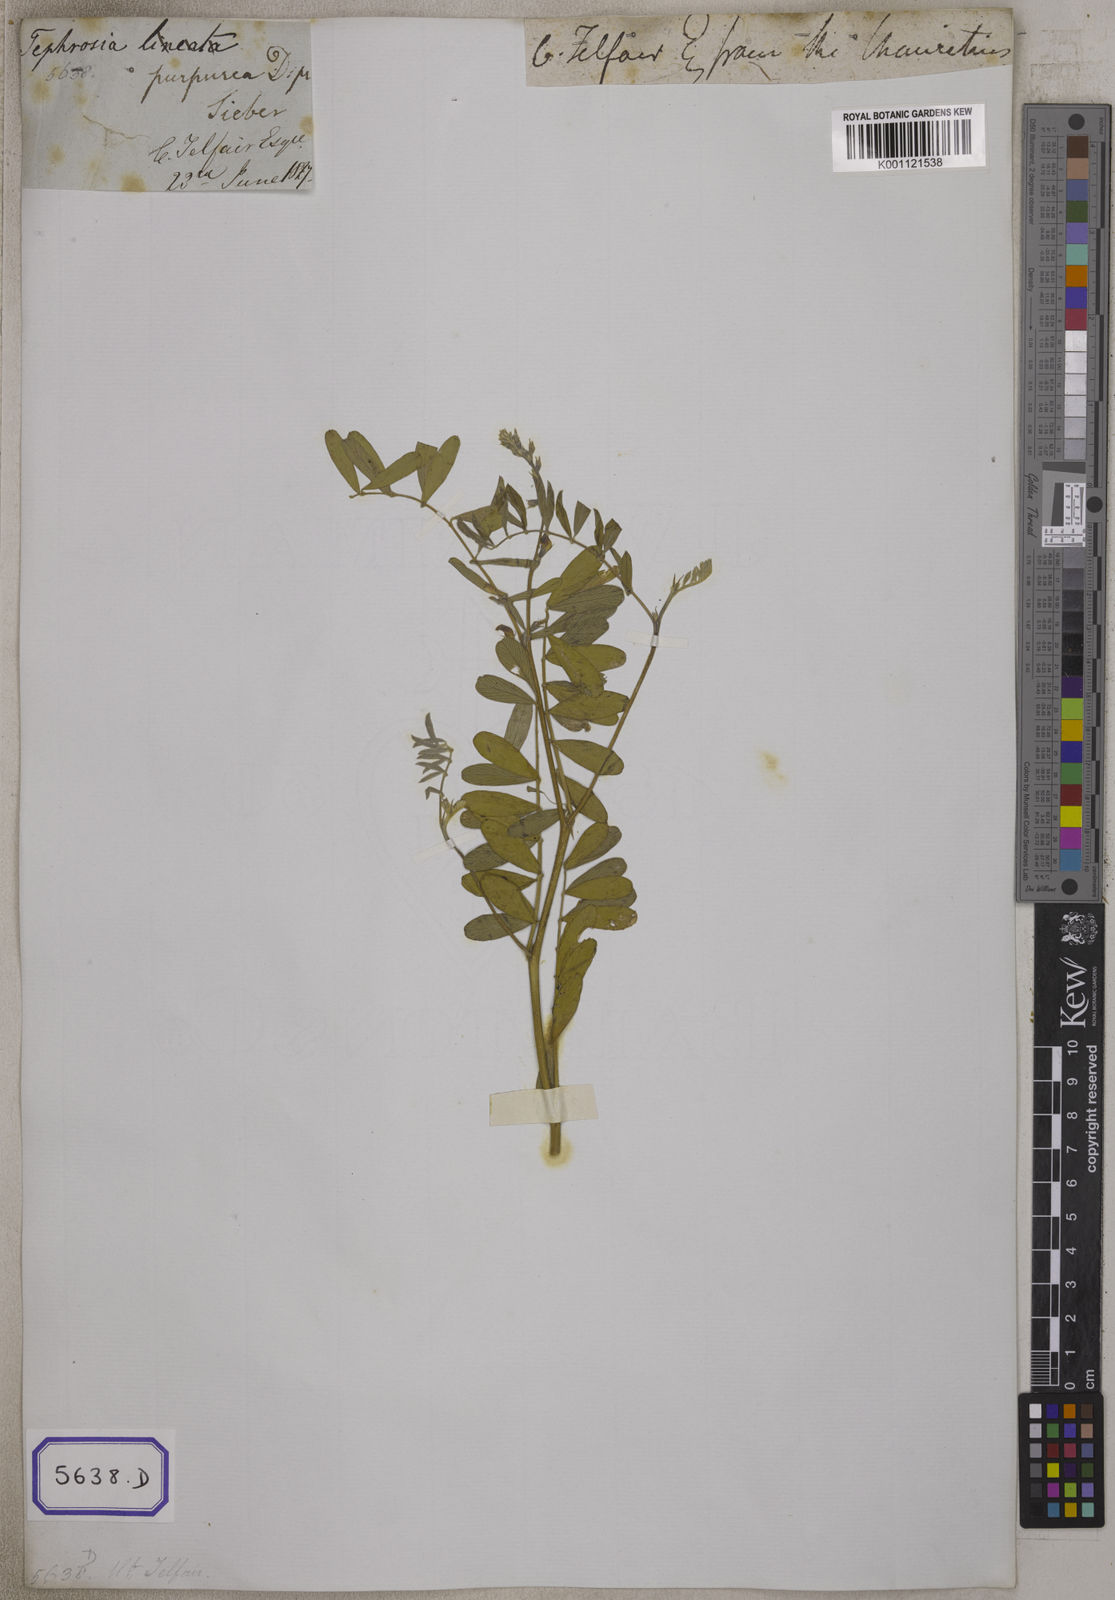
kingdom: Plantae
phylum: Tracheophyta
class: Magnoliopsida
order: Fabales
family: Fabaceae
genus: Tephrosia
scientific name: Tephrosia purpurea
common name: Fishpoison
